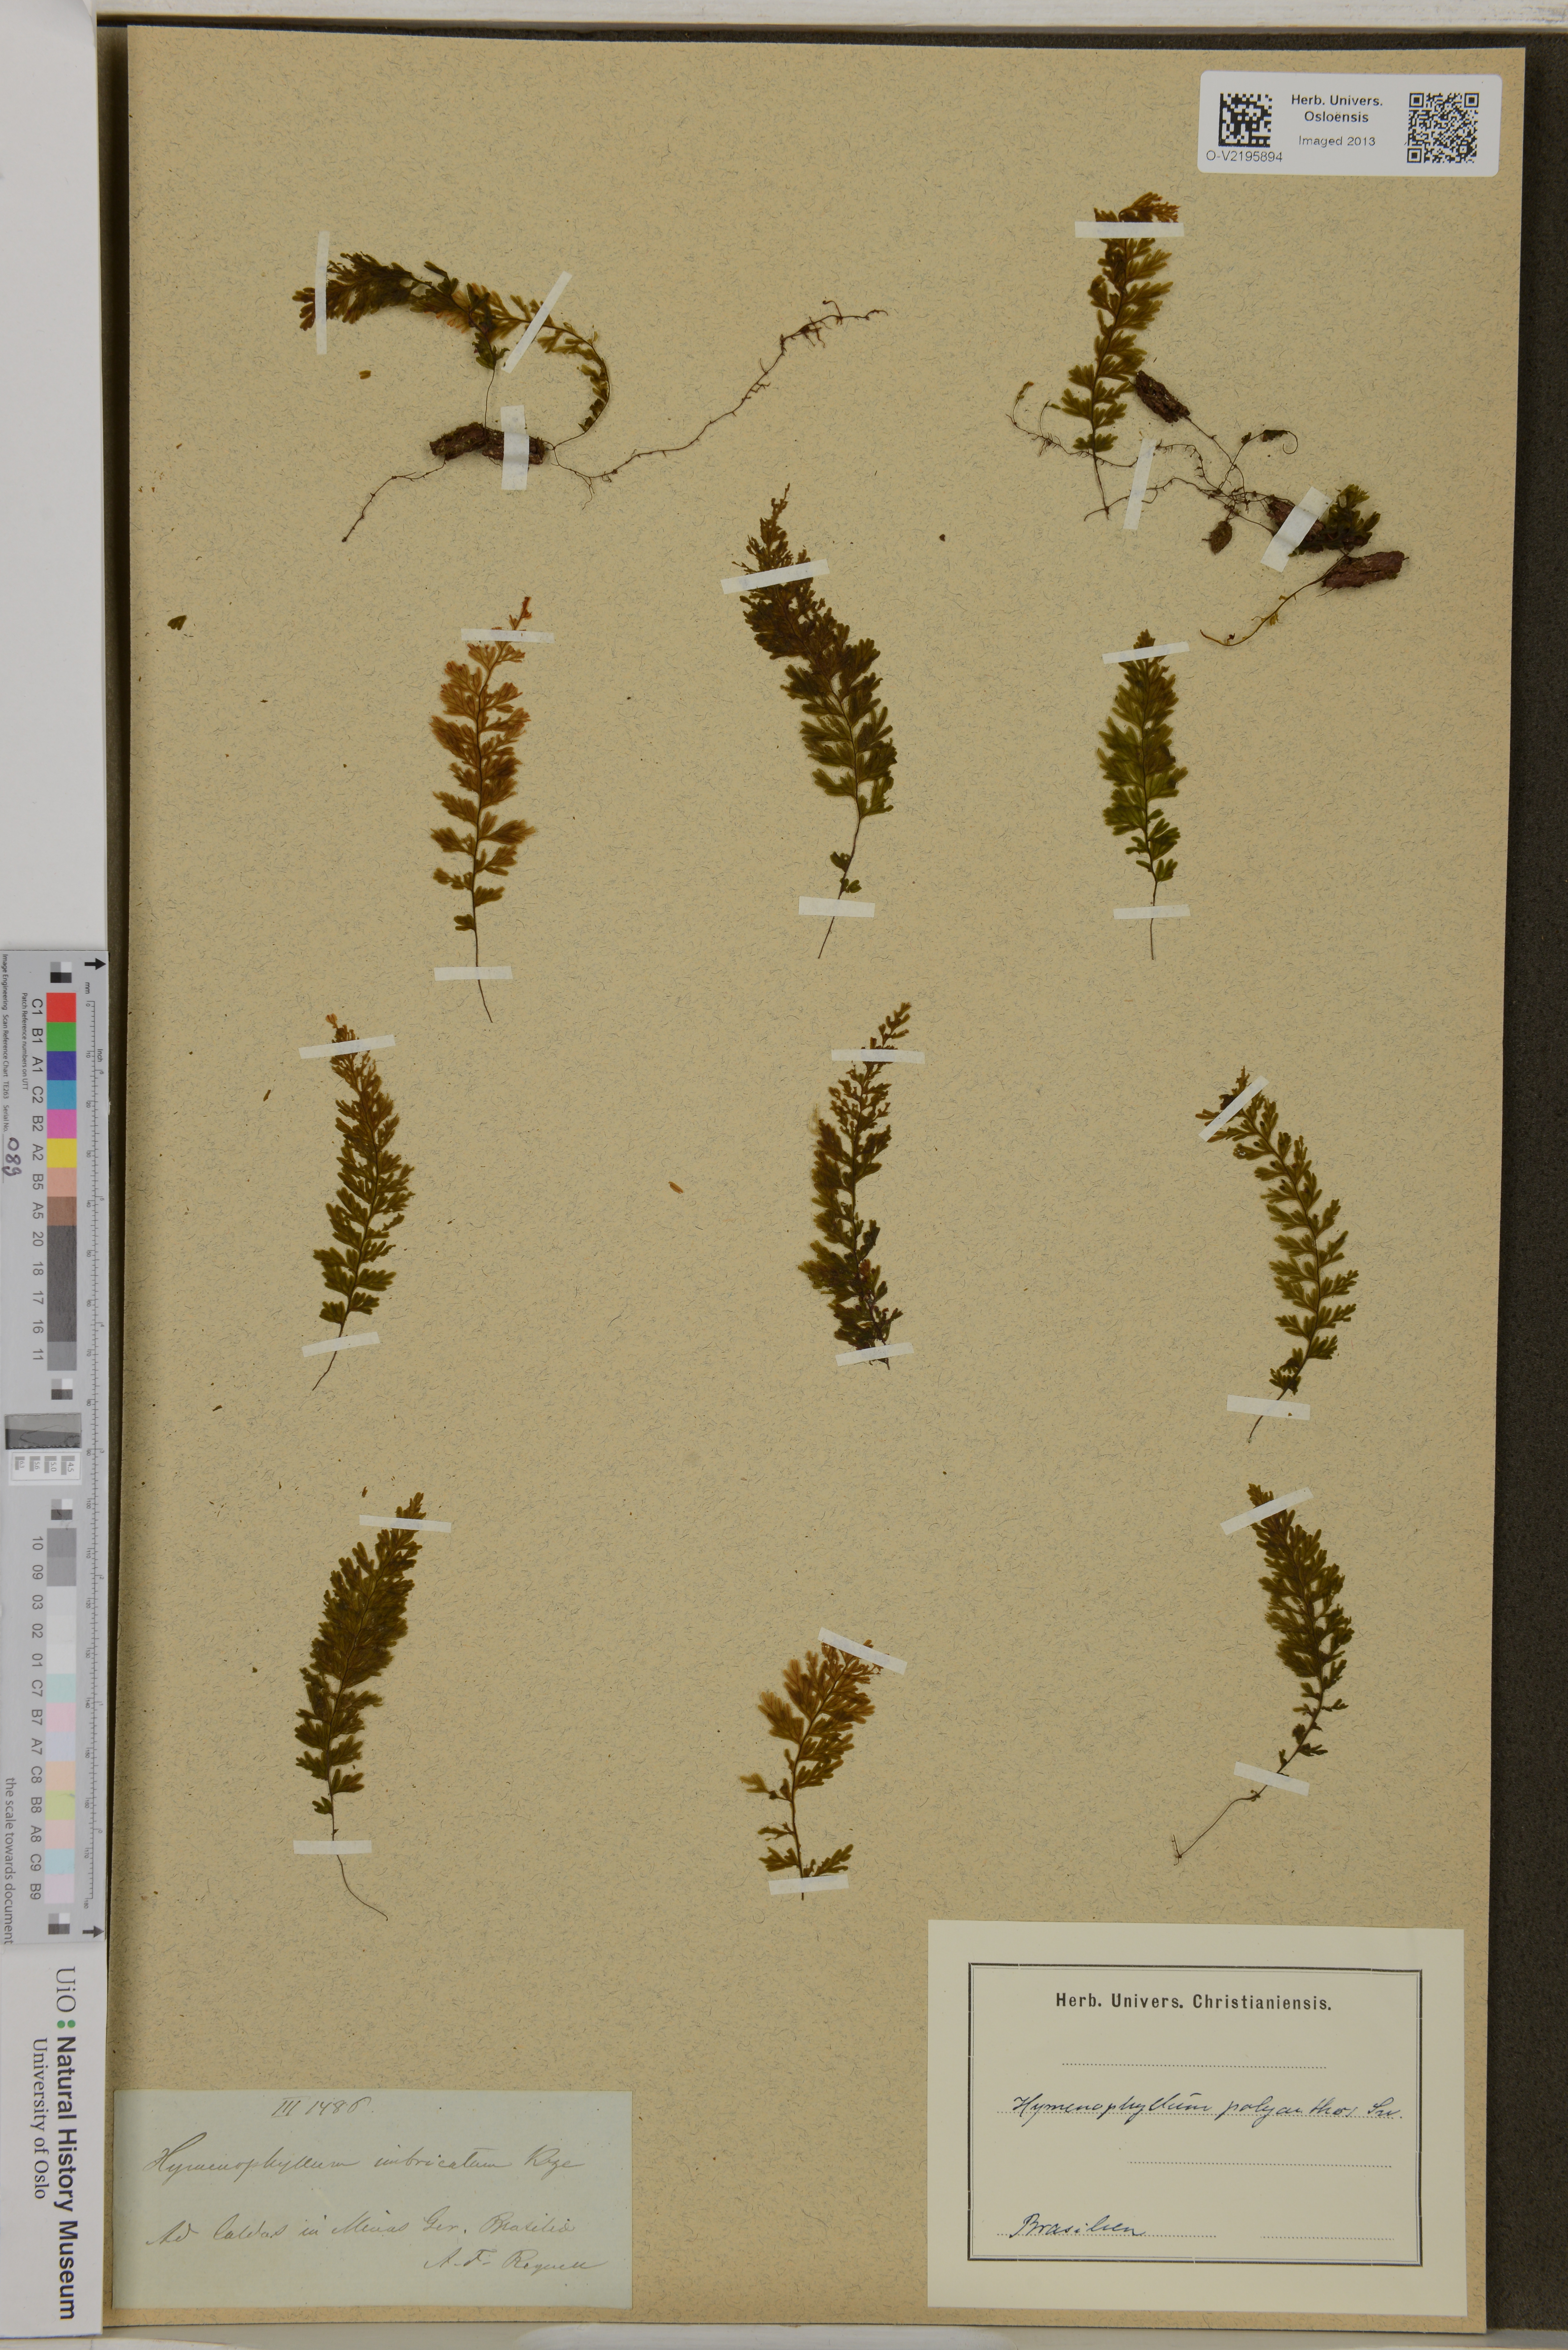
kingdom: Plantae
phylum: Tracheophyta
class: Polypodiopsida
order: Hymenophyllales
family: Hymenophyllaceae
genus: Hymenophyllum
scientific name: Hymenophyllum polyanthos
